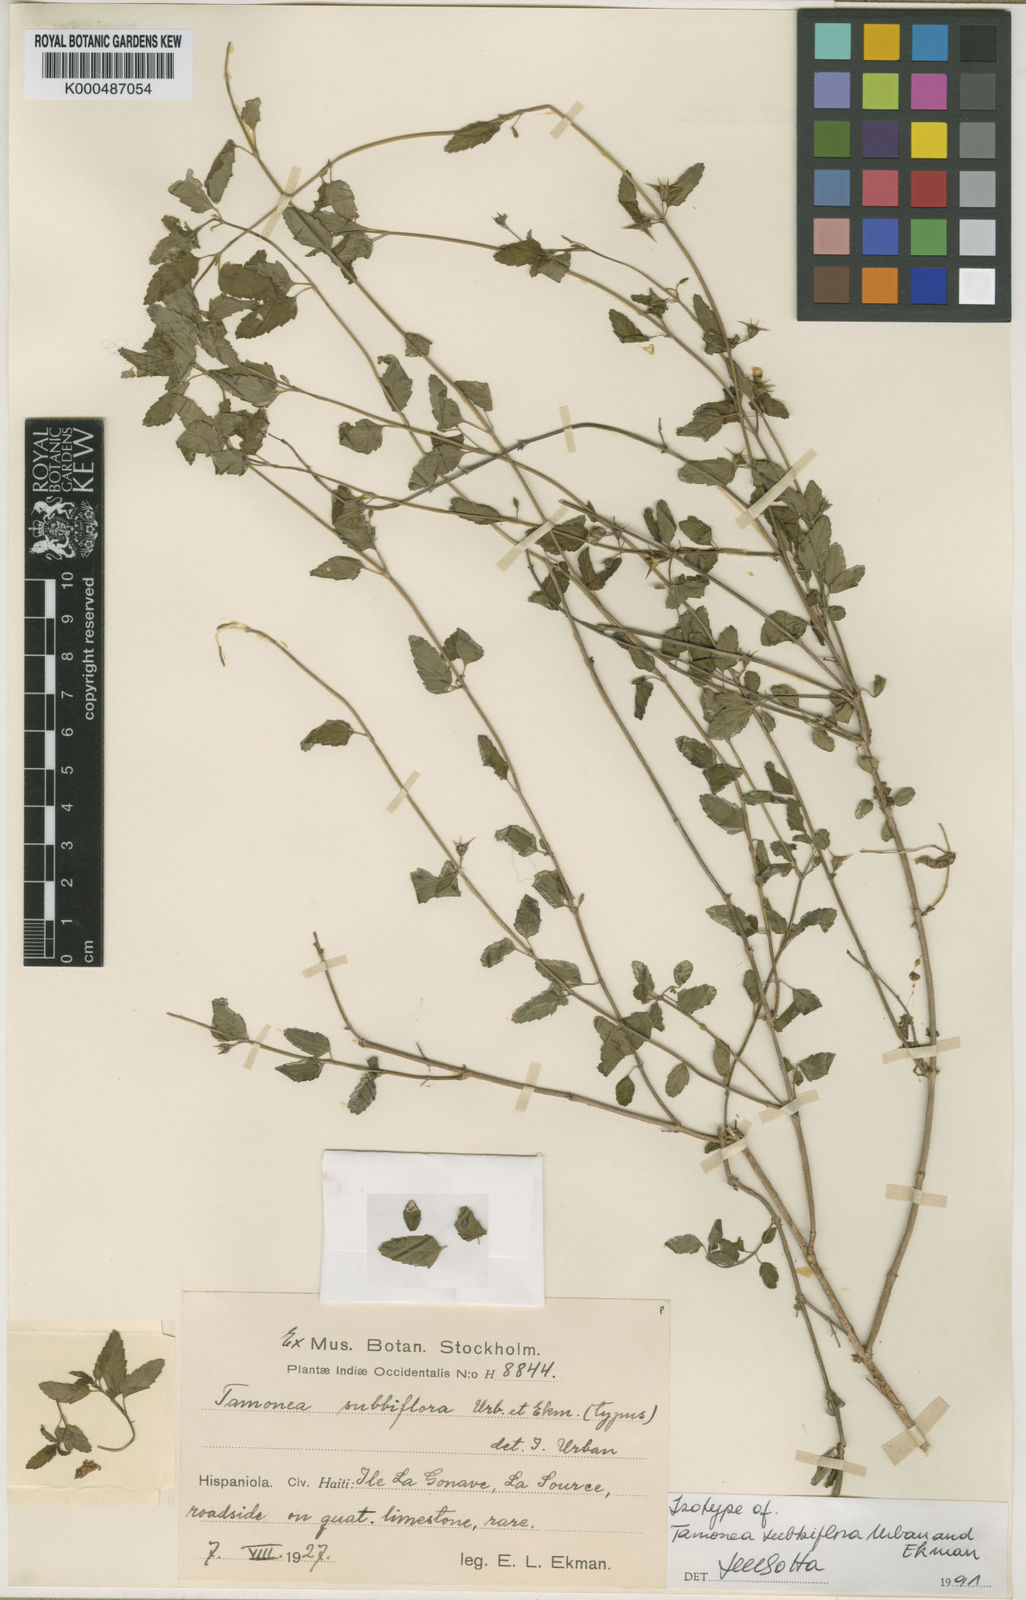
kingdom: Plantae
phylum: Tracheophyta
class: Magnoliopsida
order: Lamiales
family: Verbenaceae
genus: Tamonea
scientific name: Tamonea
